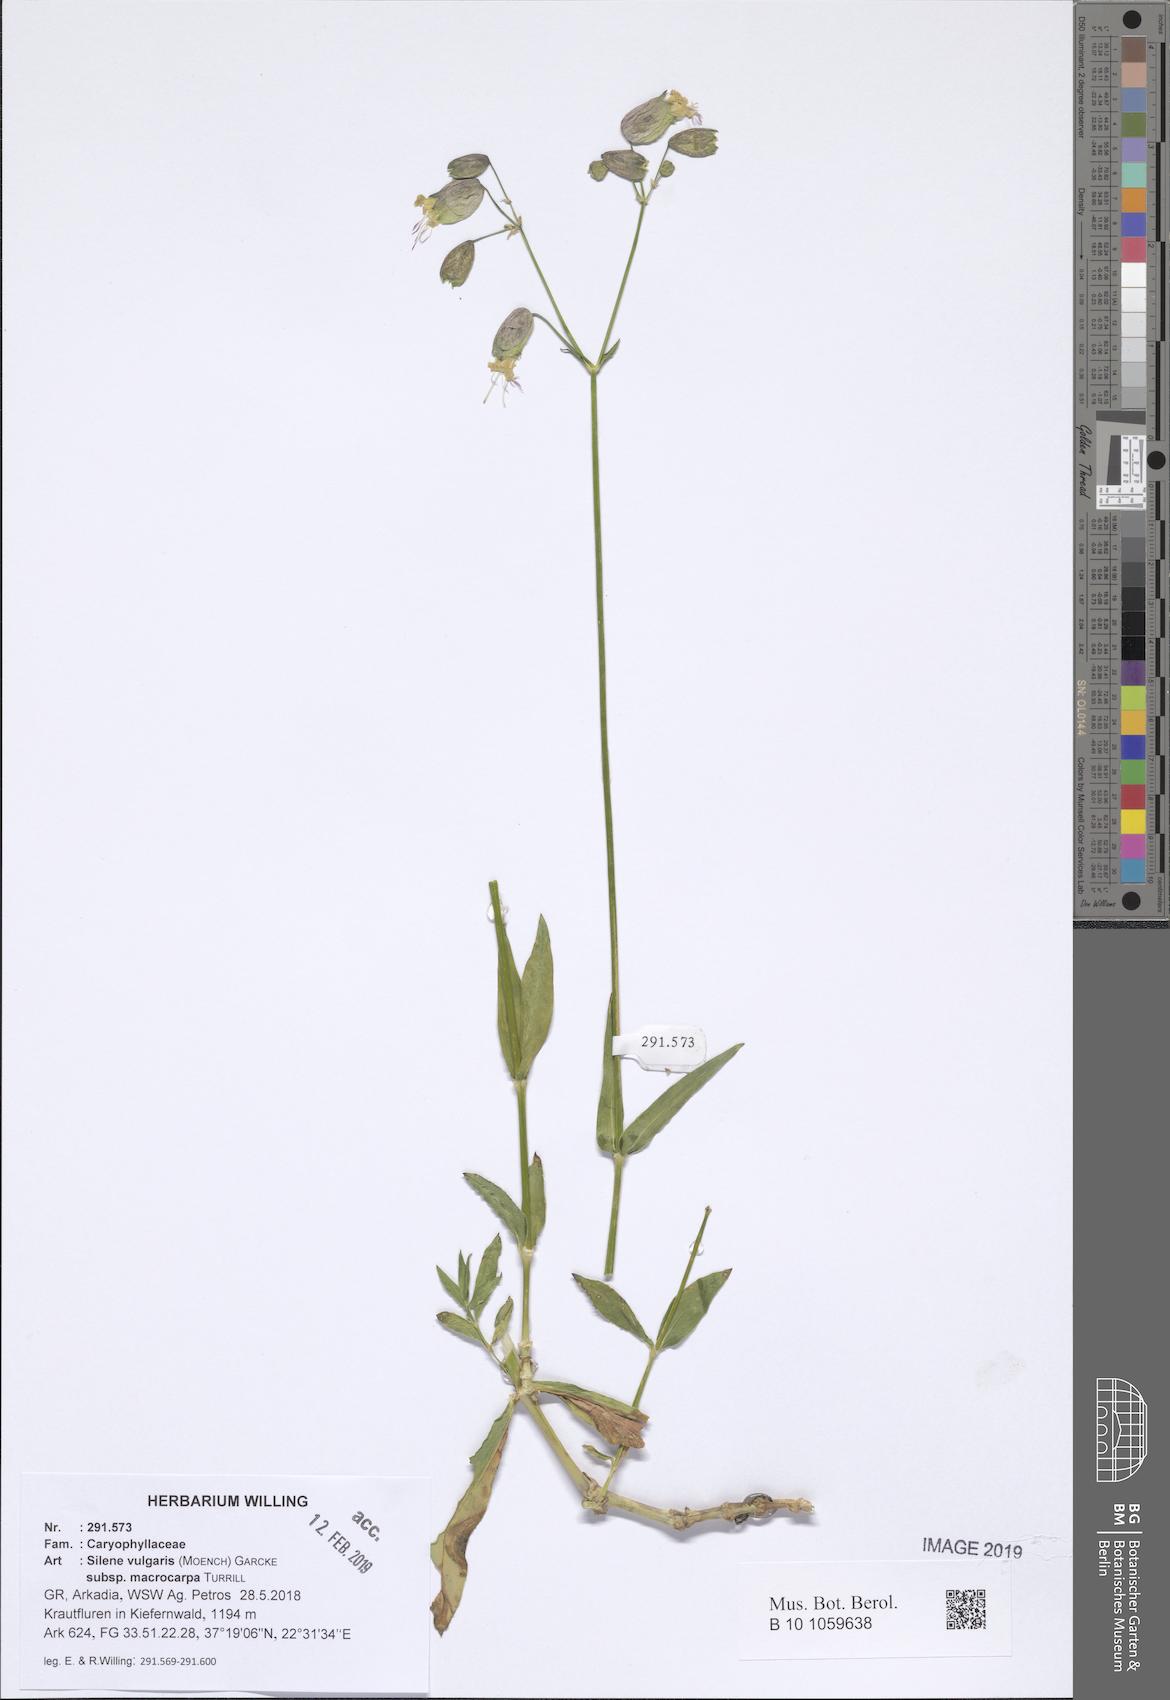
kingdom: Plantae
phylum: Tracheophyta
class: Magnoliopsida
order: Caryophyllales
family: Caryophyllaceae
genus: Silene
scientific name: Silene vulgaris
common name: Bladder campion
